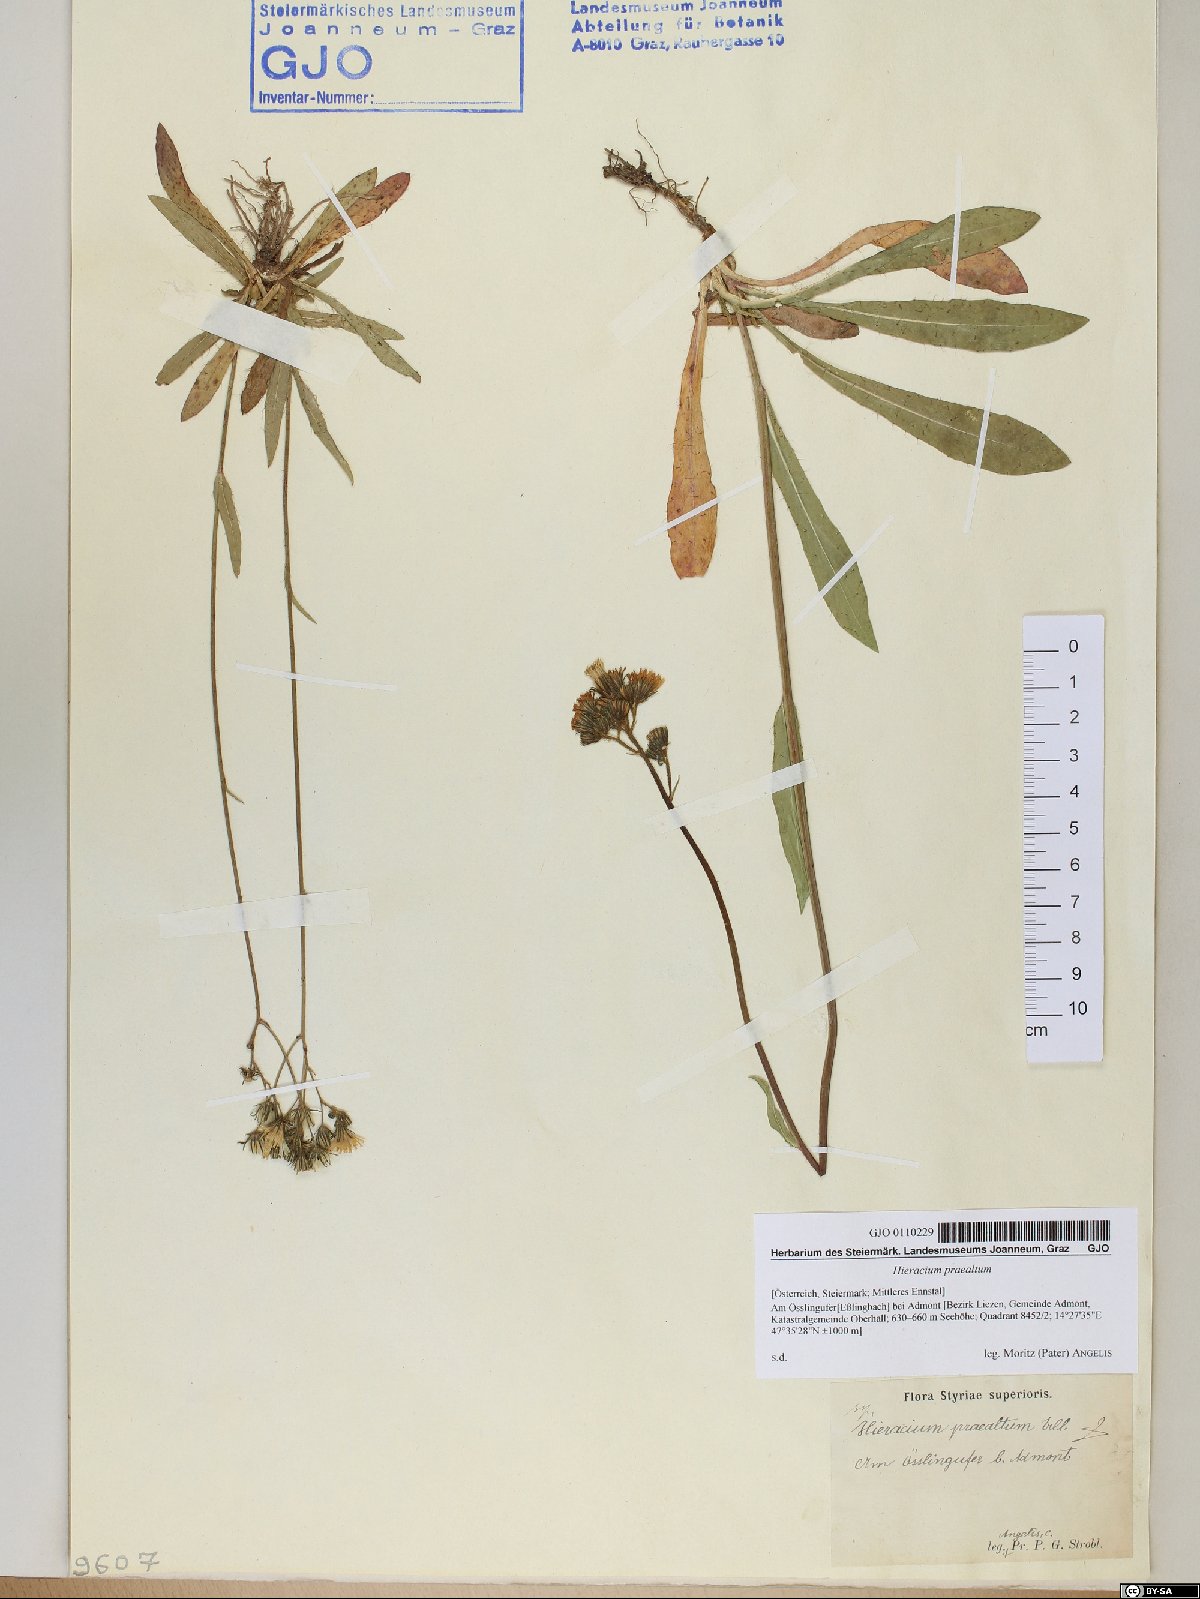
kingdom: Plantae
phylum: Tracheophyta
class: Magnoliopsida
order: Asterales
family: Asteraceae
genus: Pilosella
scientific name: Pilosella piloselloides
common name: Glaucous king-devil
